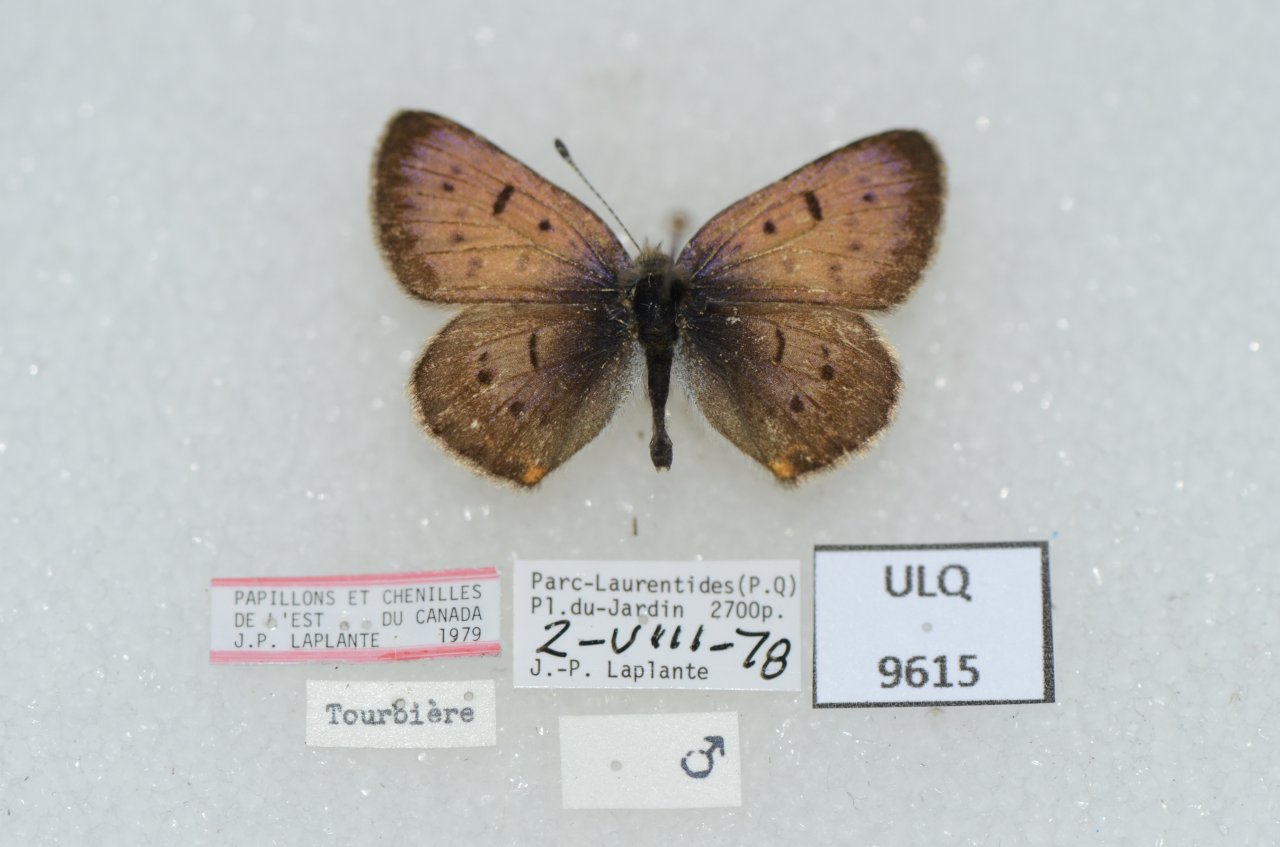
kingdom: Animalia
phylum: Arthropoda
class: Insecta
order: Lepidoptera
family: Lycaenidae
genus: Epidemia
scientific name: Epidemia dorcas
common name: Dorcas Copper
